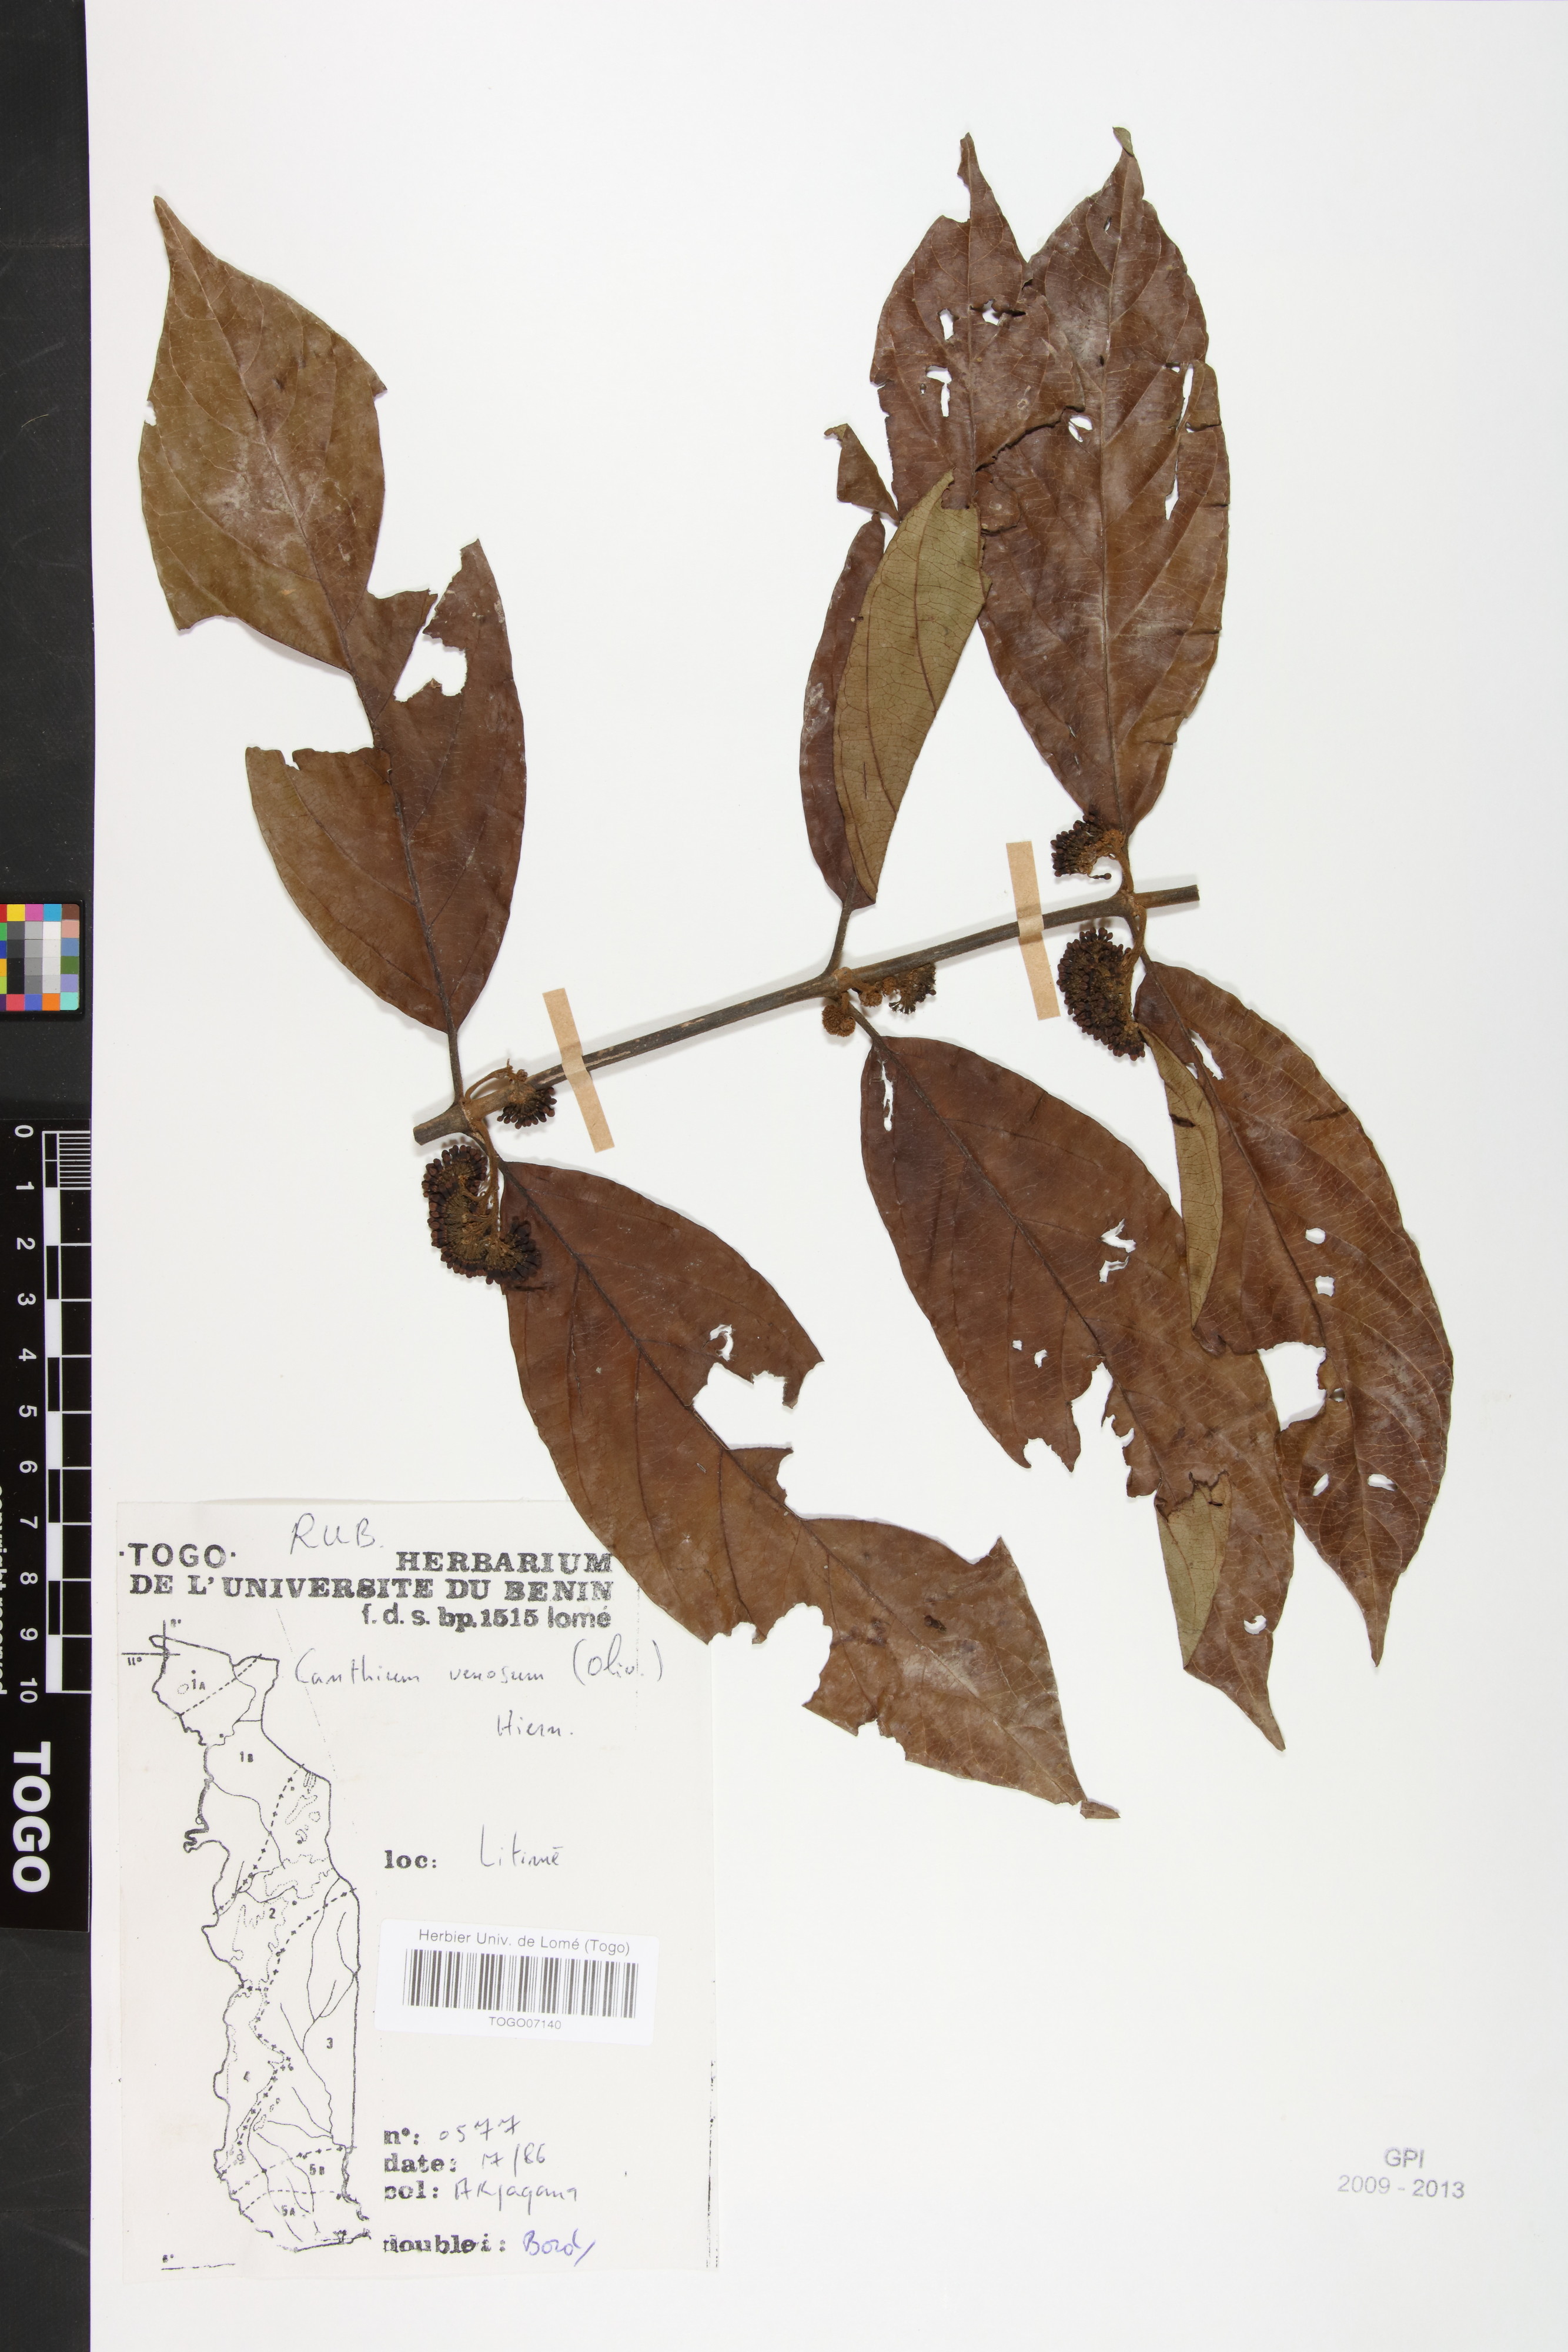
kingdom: Plantae
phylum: Tracheophyta
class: Magnoliopsida
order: Gentianales
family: Rubiaceae
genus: Keetia
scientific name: Keetia venosa
